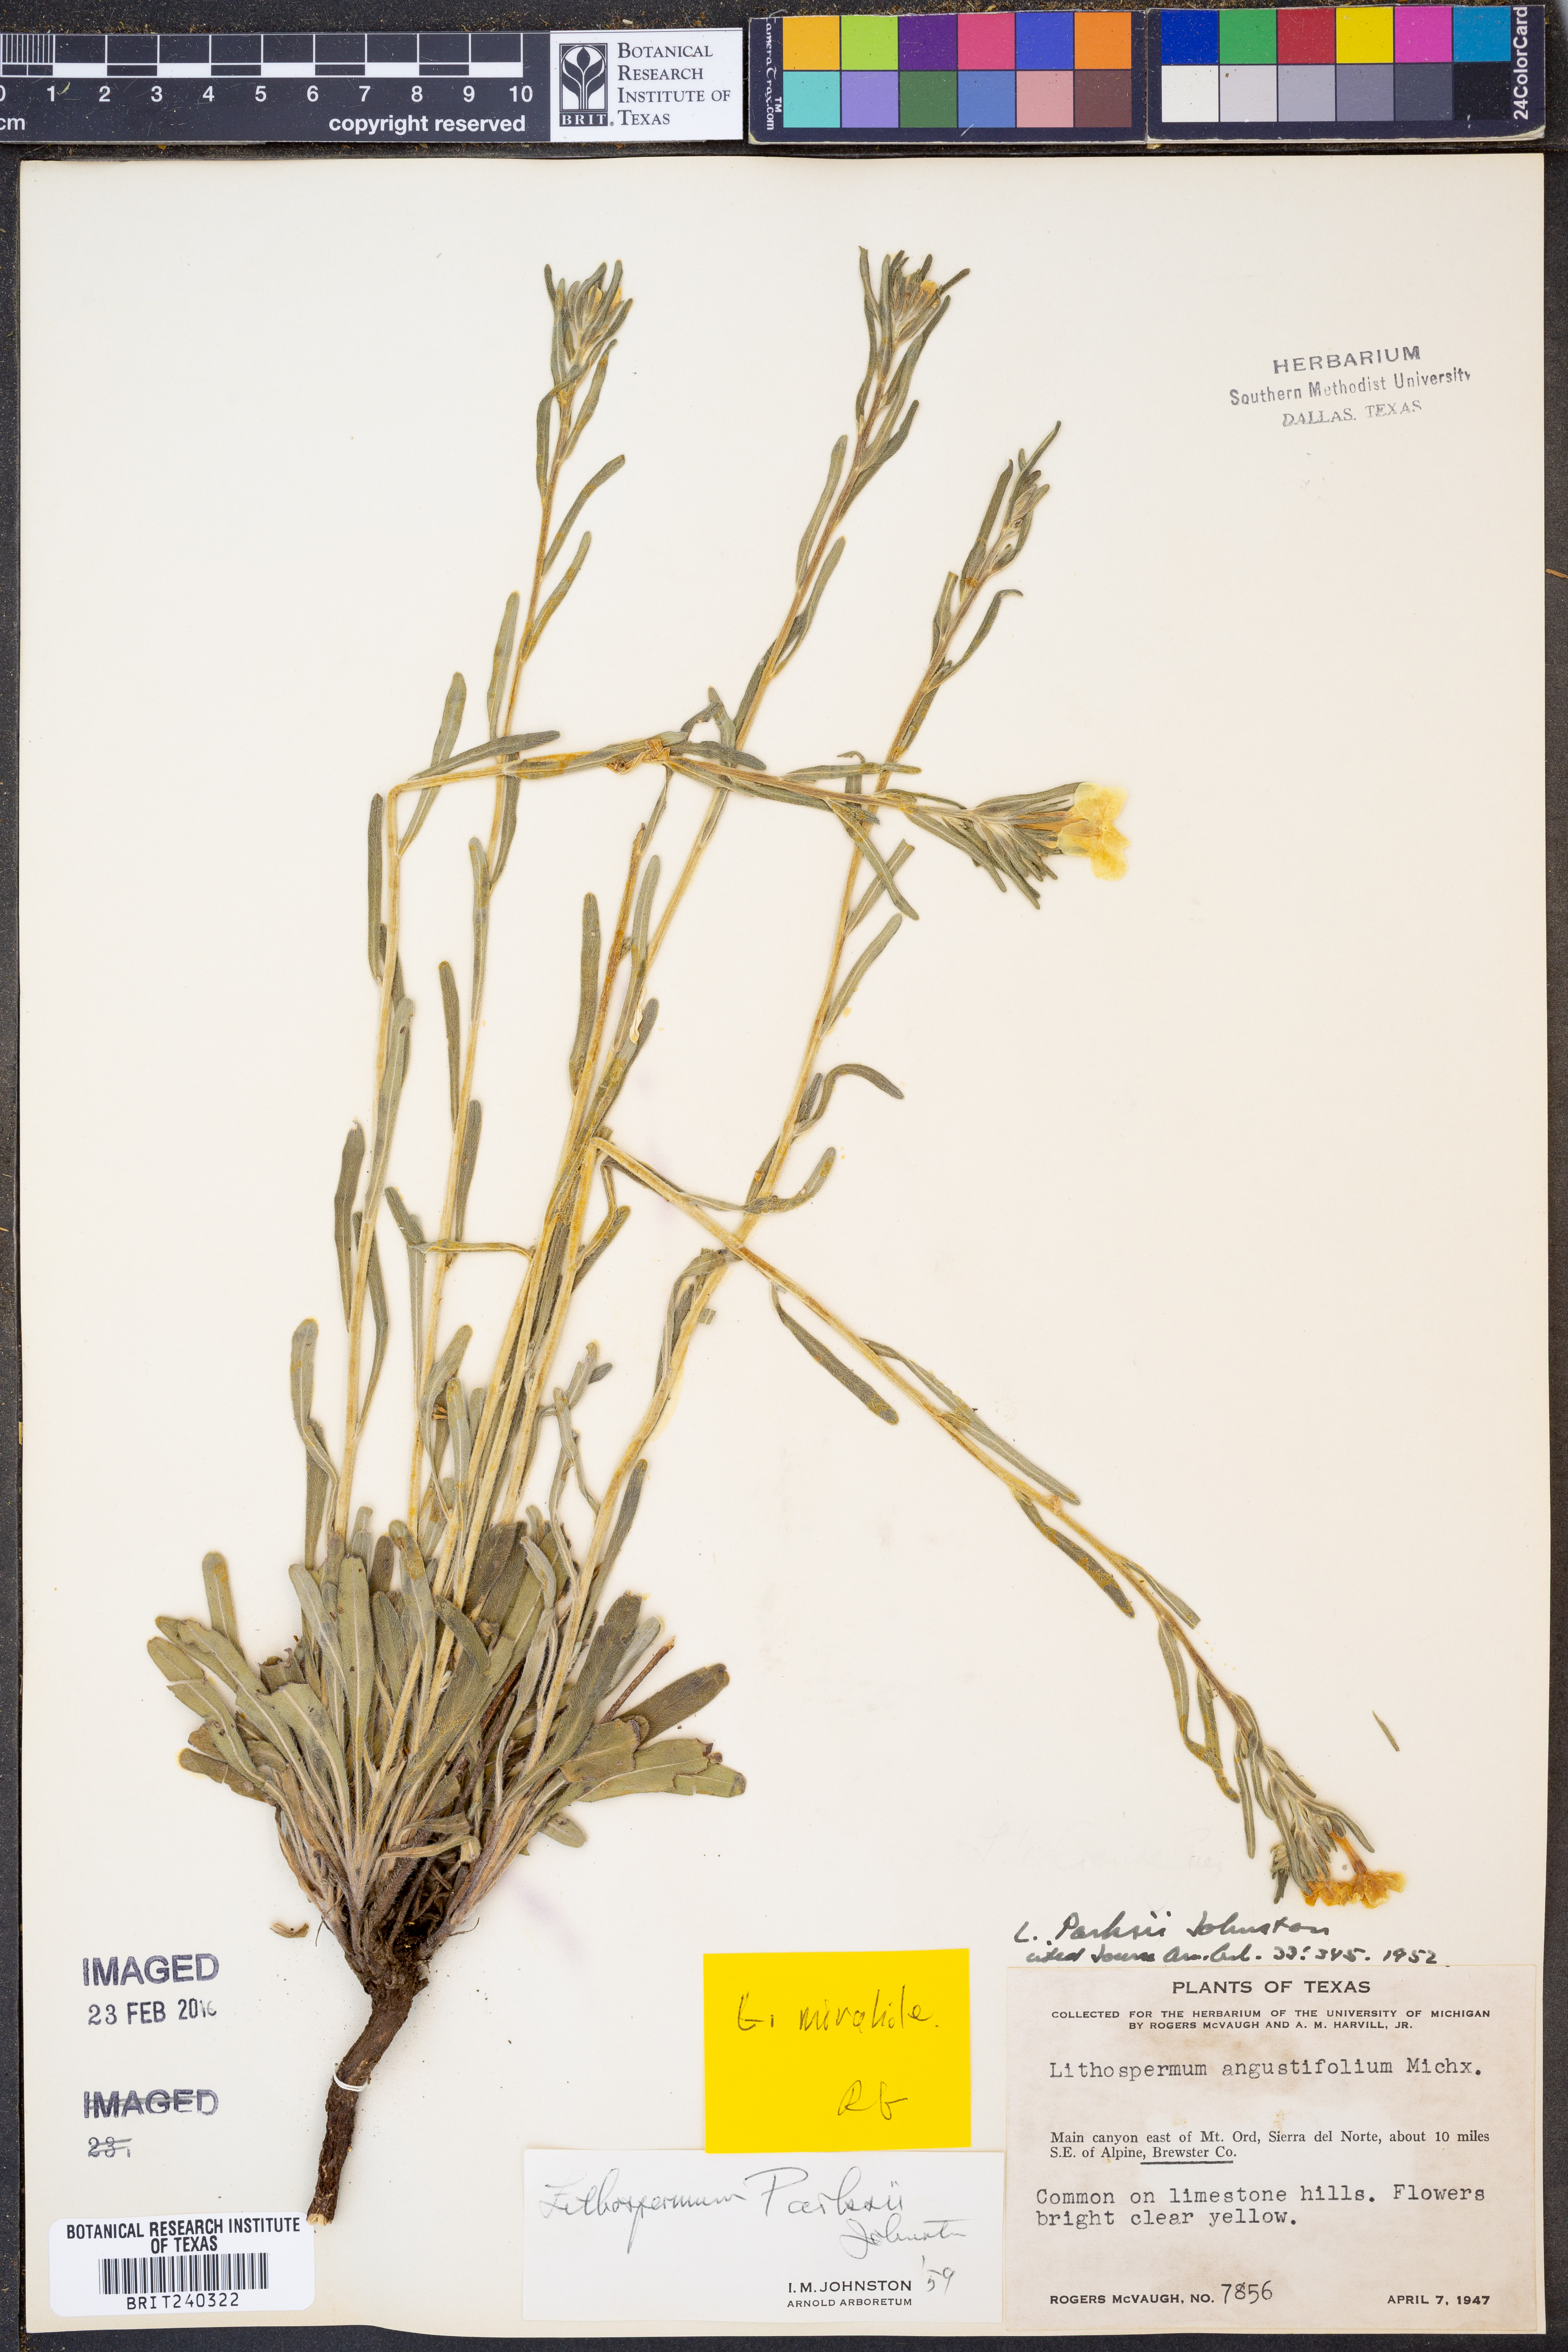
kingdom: Plantae
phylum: Tracheophyta
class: Magnoliopsida
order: Boraginales
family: Boraginaceae
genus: Lithospermum
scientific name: Lithospermum mirabile
